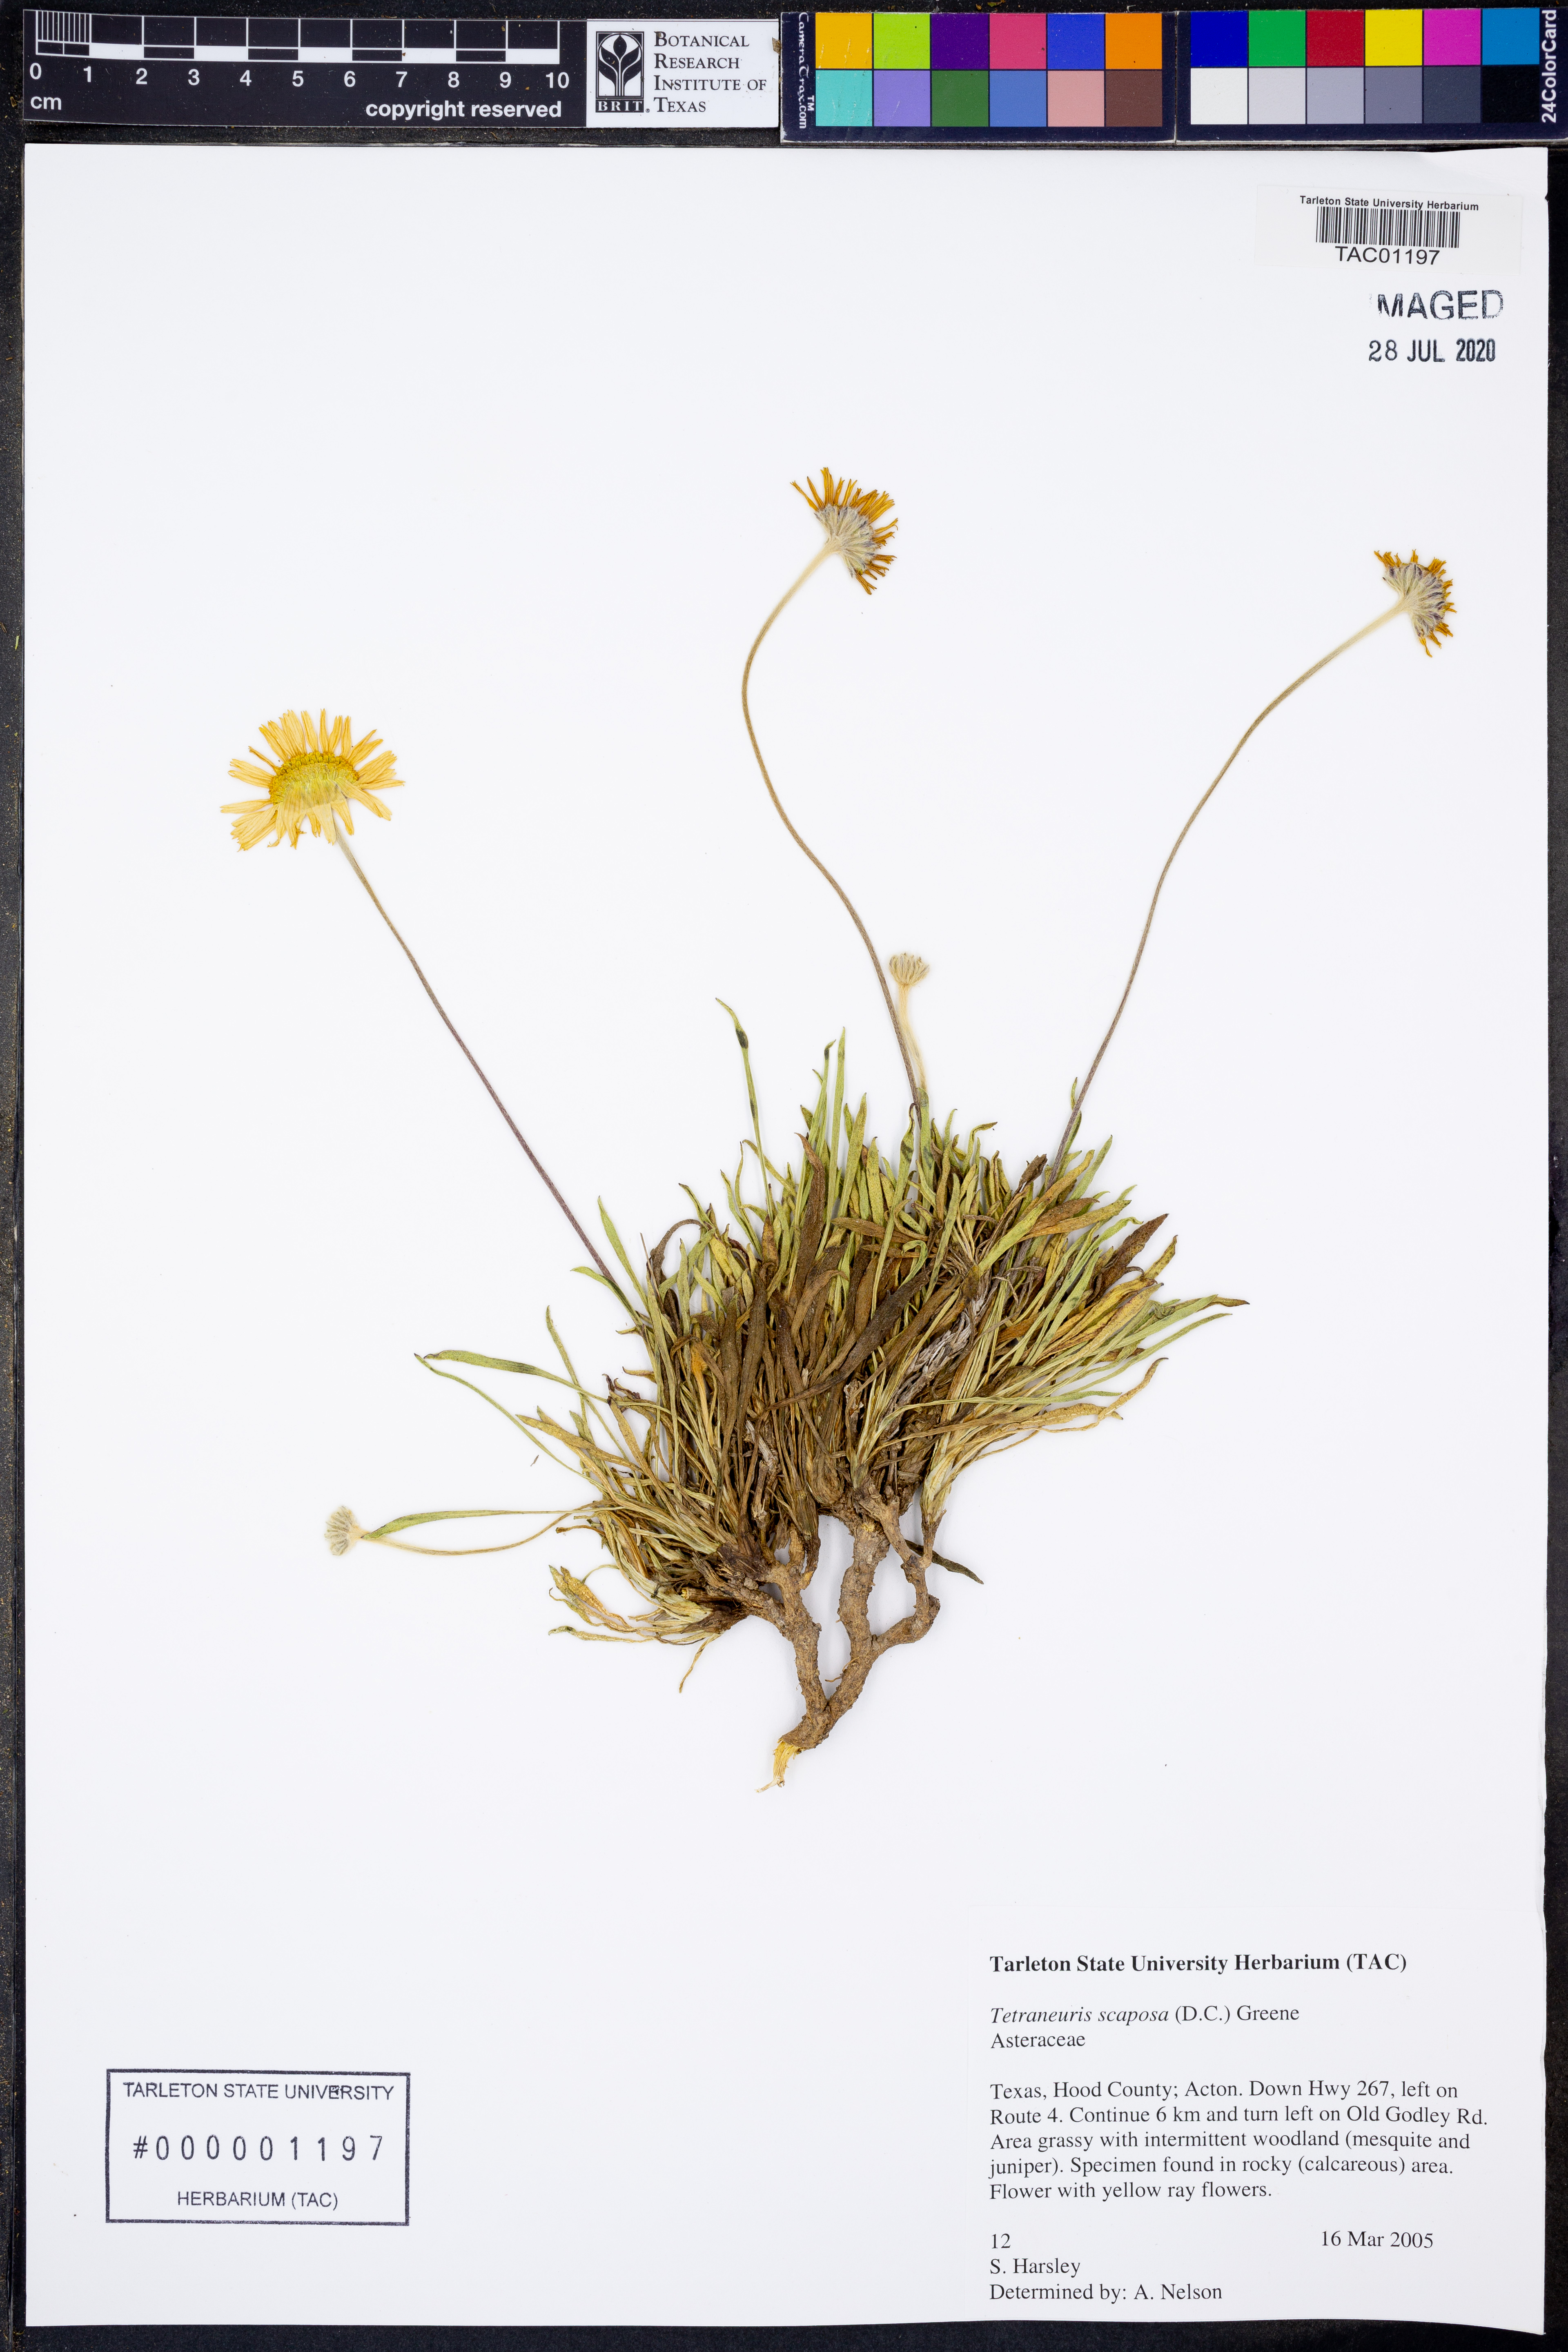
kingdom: Plantae
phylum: Tracheophyta
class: Magnoliopsida
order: Asterales
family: Asteraceae
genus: Tetraneuris
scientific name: Tetraneuris scaposa
